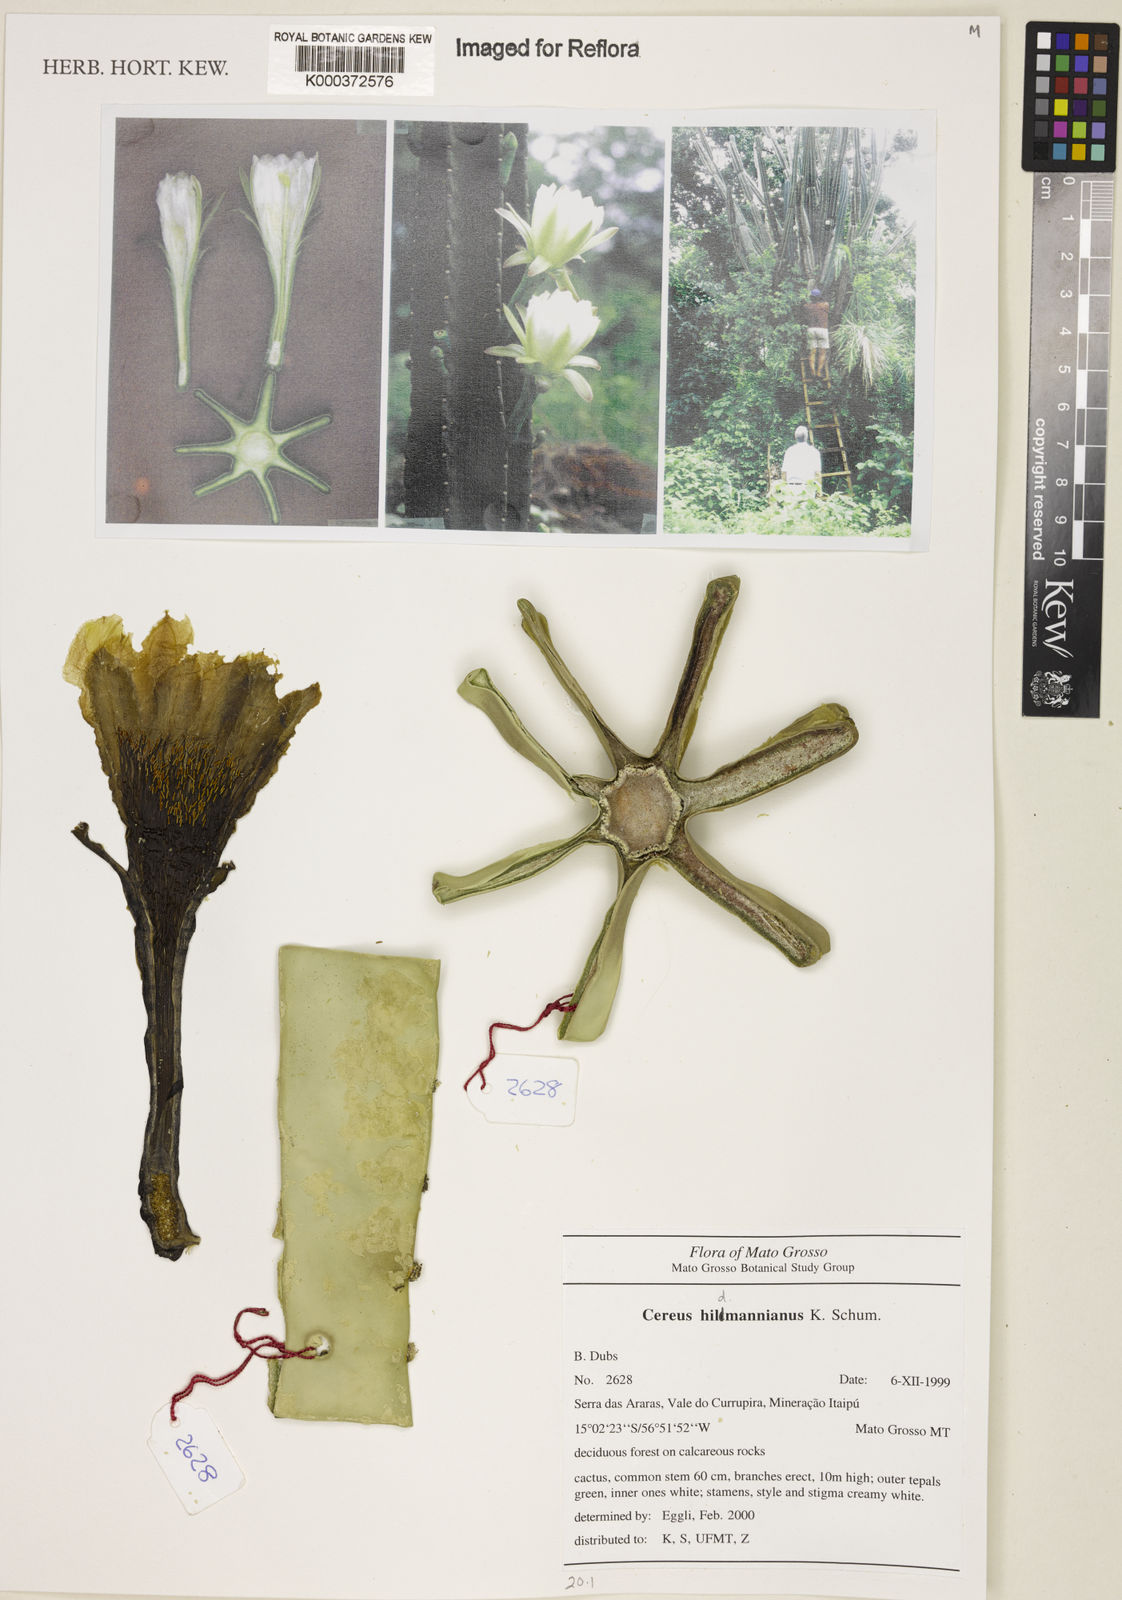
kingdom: Plantae
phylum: Tracheophyta
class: Magnoliopsida
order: Caryophyllales
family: Cactaceae
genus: Cereus
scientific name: Cereus hildmannianus
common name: Hedge cactus
